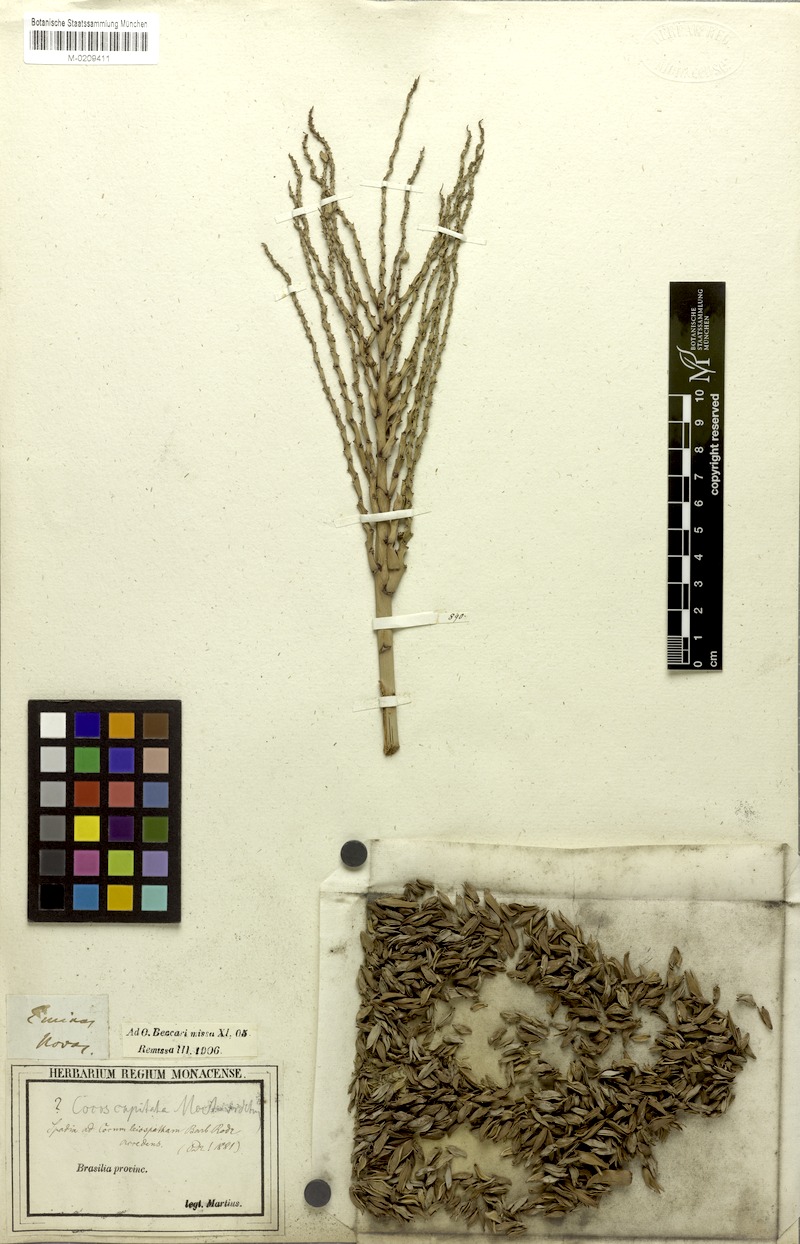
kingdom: Plantae
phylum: Tracheophyta
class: Liliopsida
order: Arecales
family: Arecaceae
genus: Butia
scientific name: Butia
